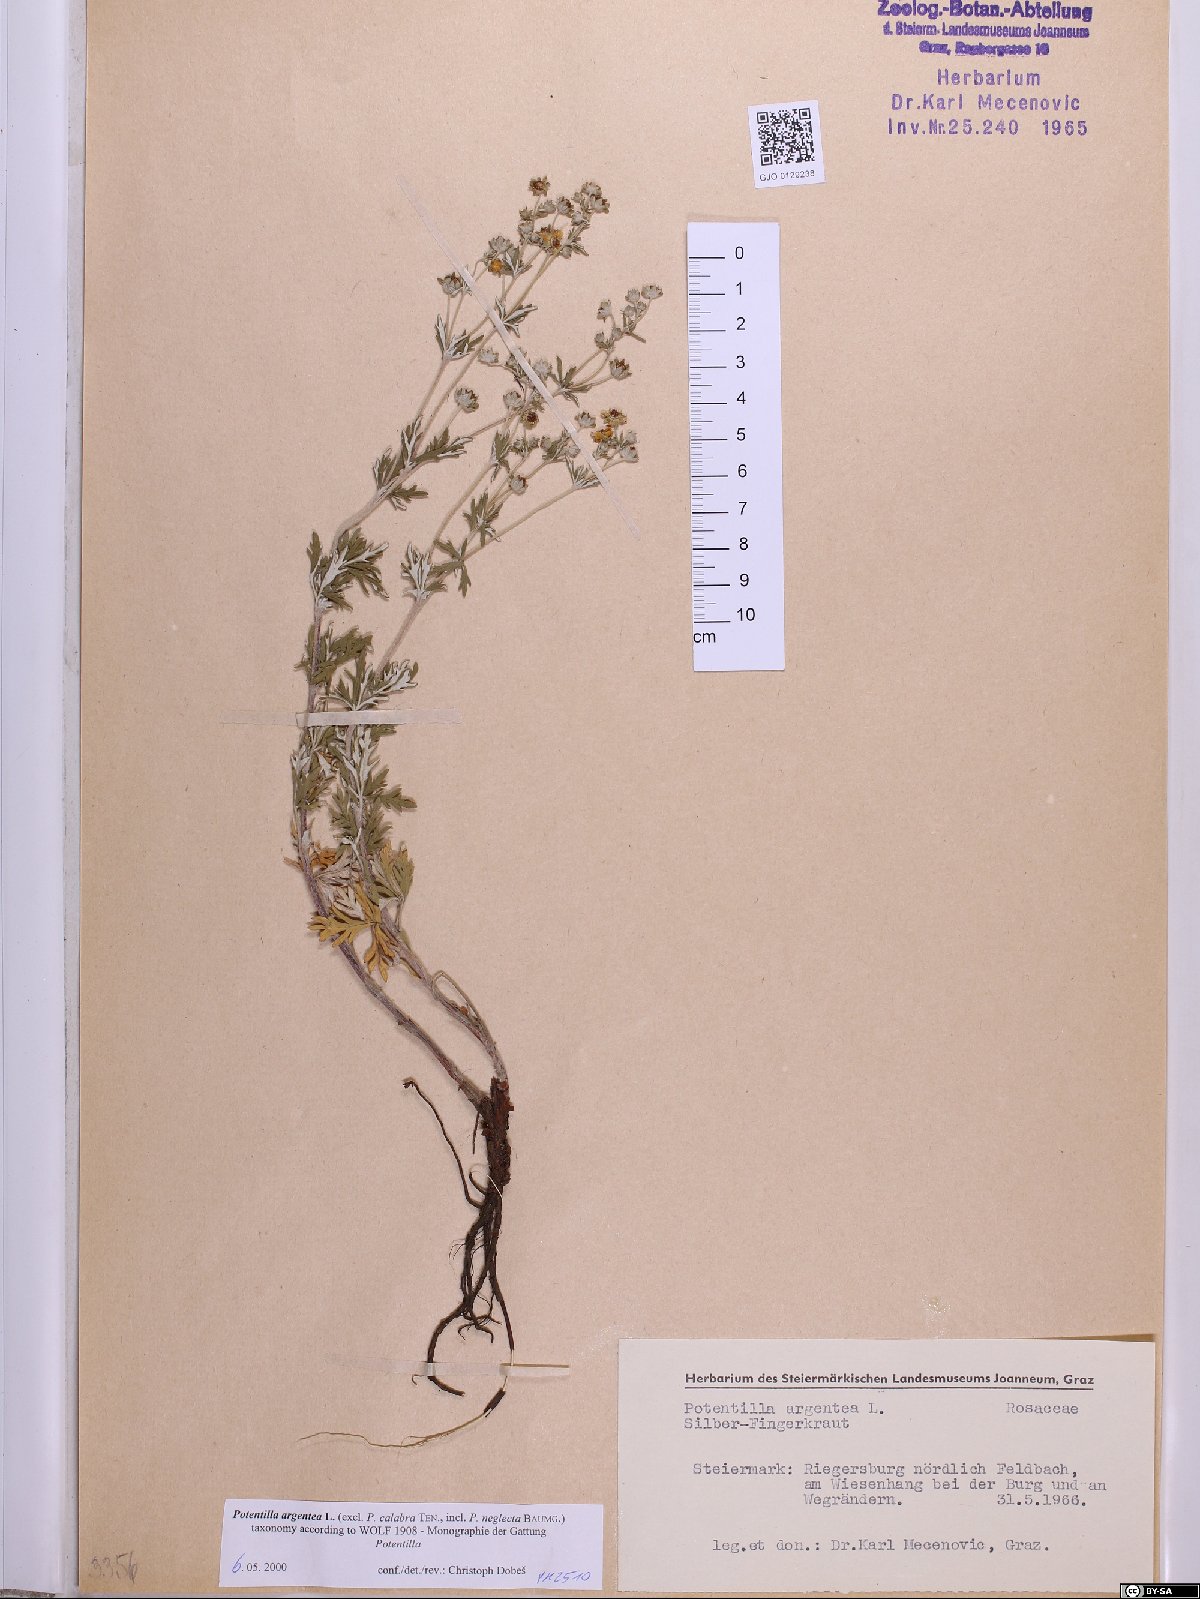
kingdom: Plantae
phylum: Tracheophyta
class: Magnoliopsida
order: Rosales
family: Rosaceae
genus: Potentilla
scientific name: Potentilla argentea
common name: Hoary cinquefoil
